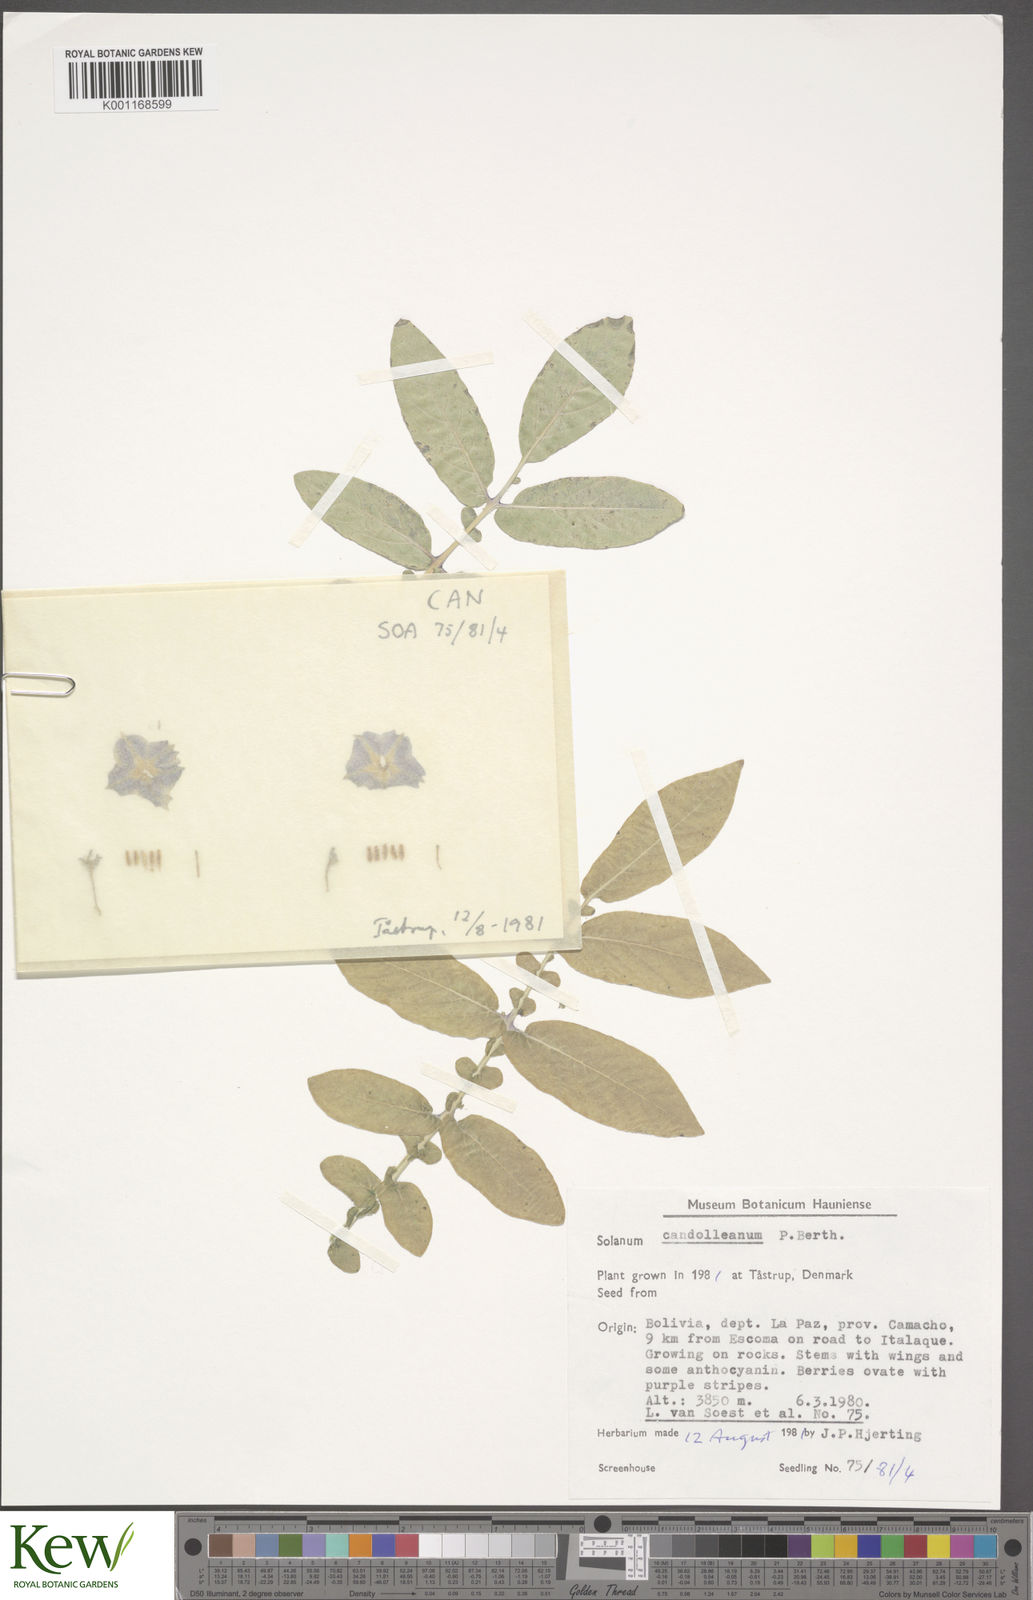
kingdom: Plantae
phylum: Tracheophyta
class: Magnoliopsida
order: Solanales
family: Solanaceae
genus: Solanum
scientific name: Solanum candolleanum
